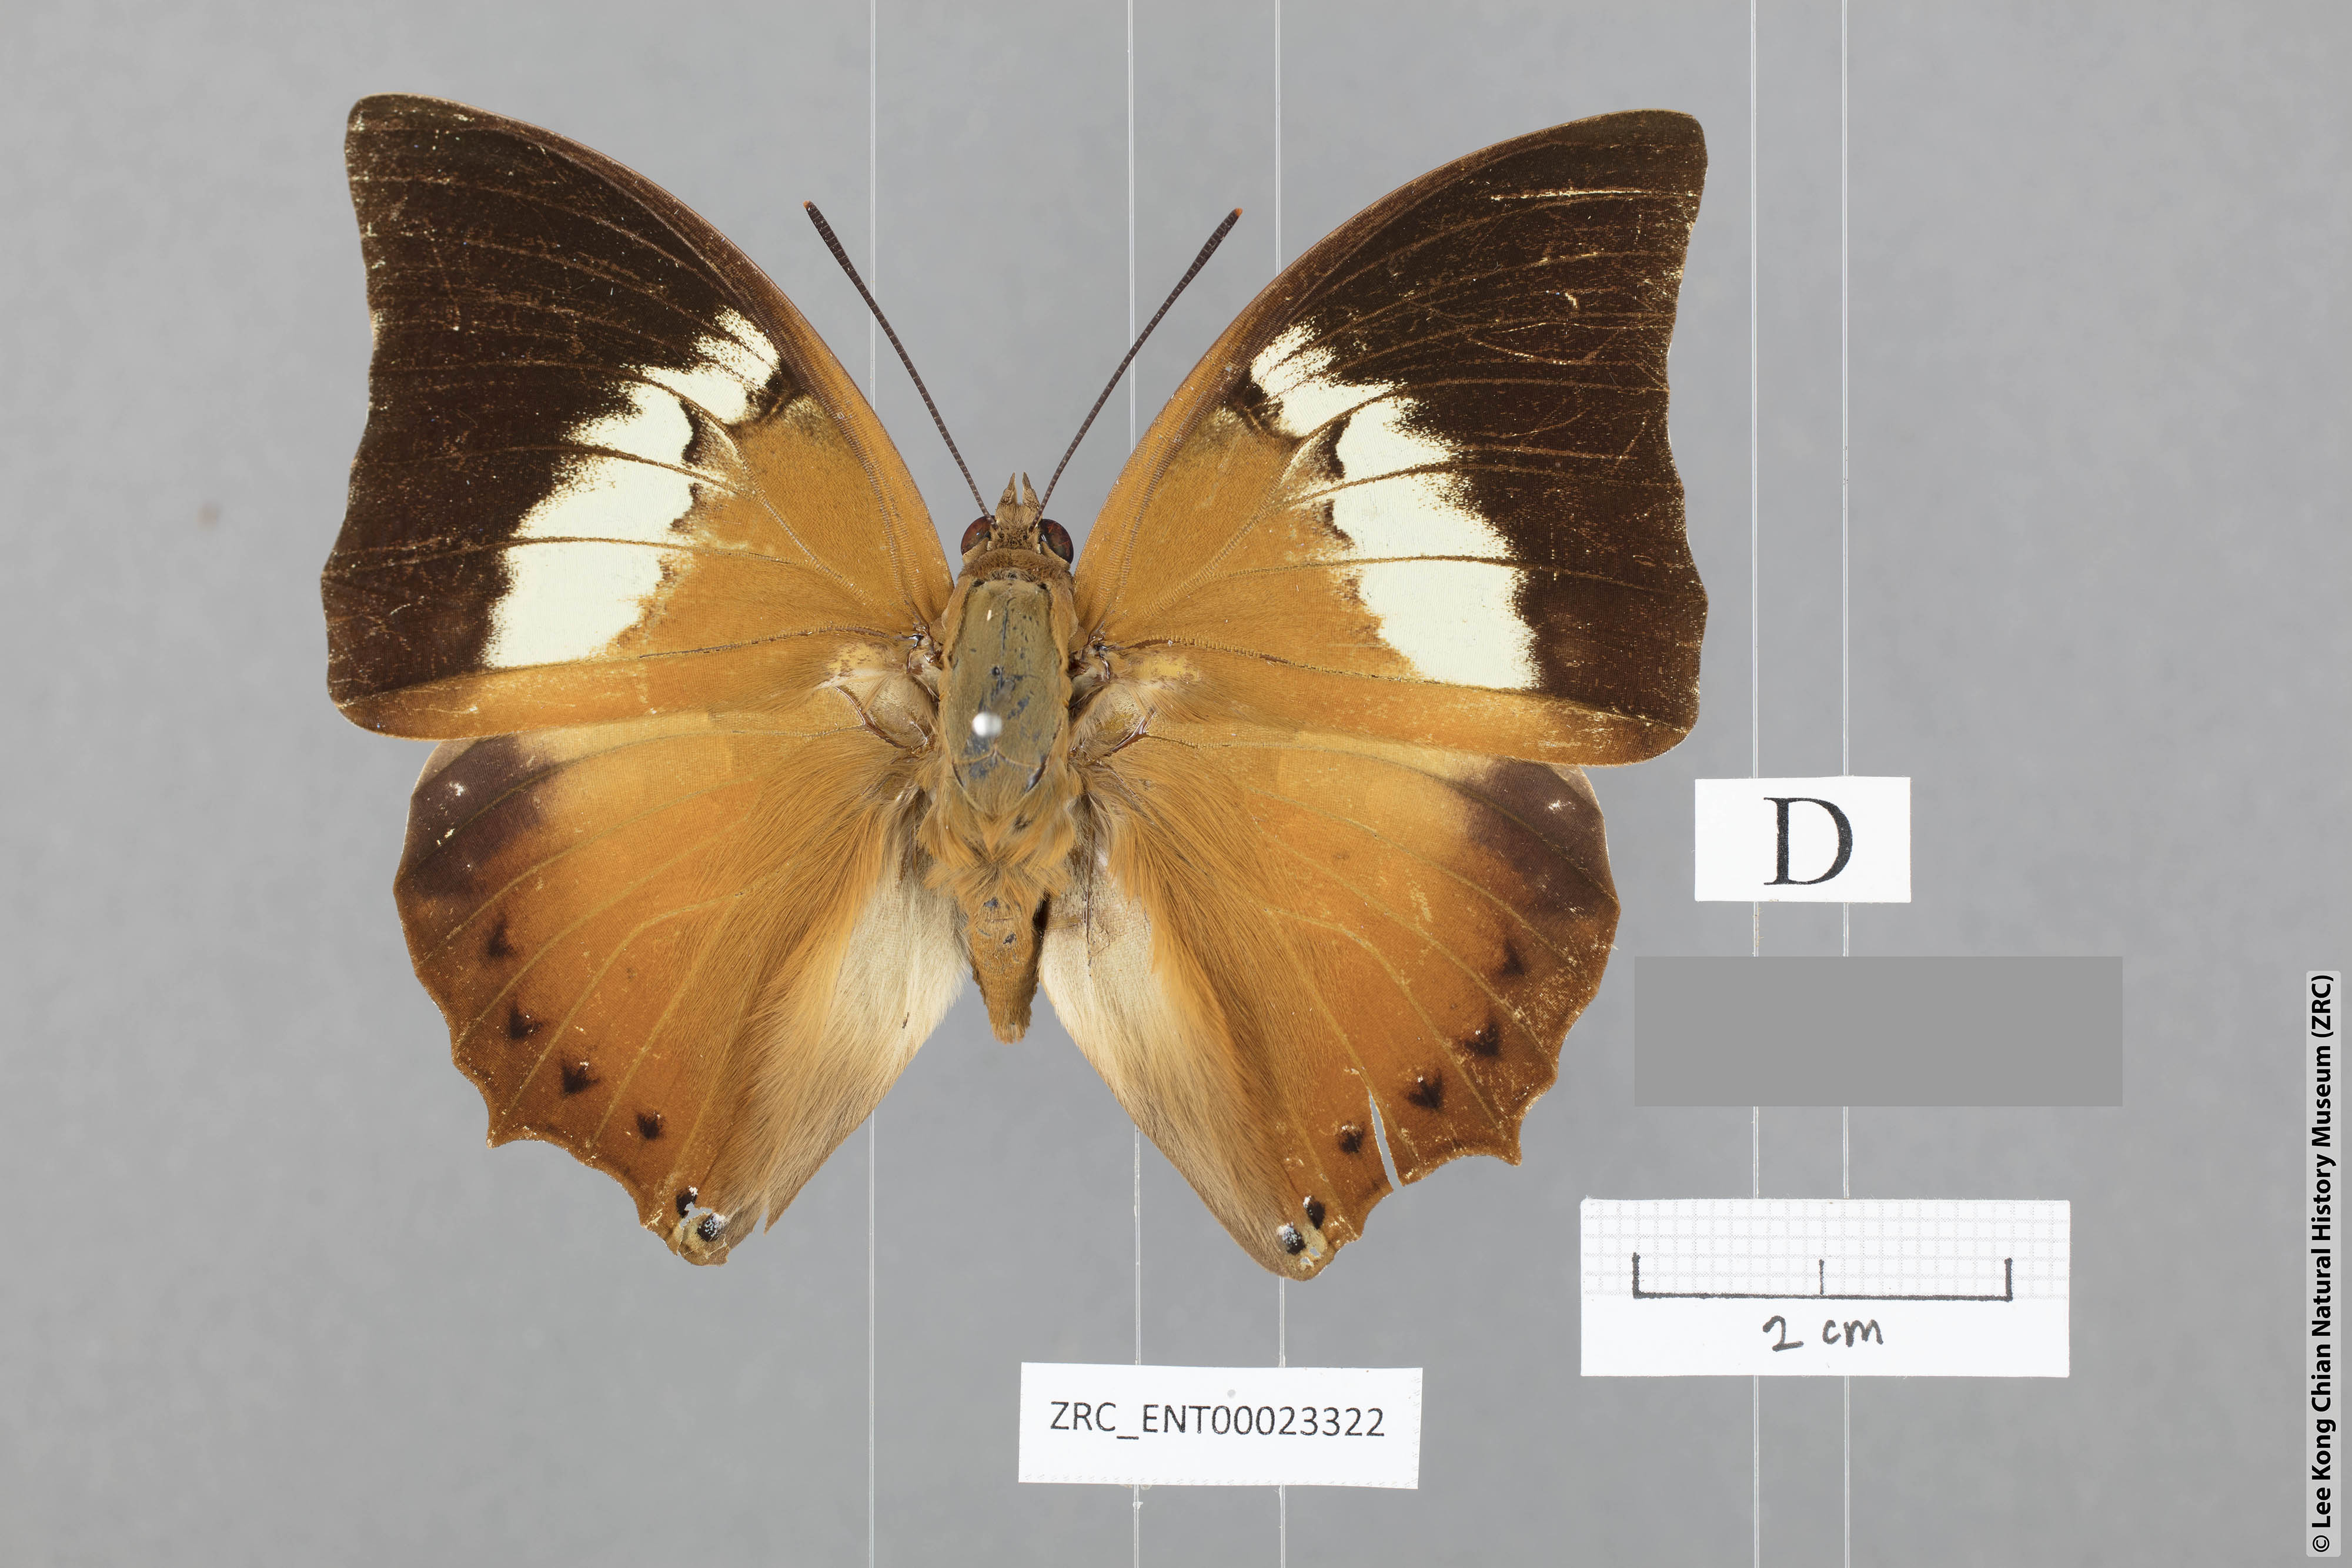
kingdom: Animalia
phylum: Arthropoda
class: Insecta
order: Lepidoptera
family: Nymphalidae
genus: Charaxes
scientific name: Charaxes borneensis
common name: White-banded rajah
